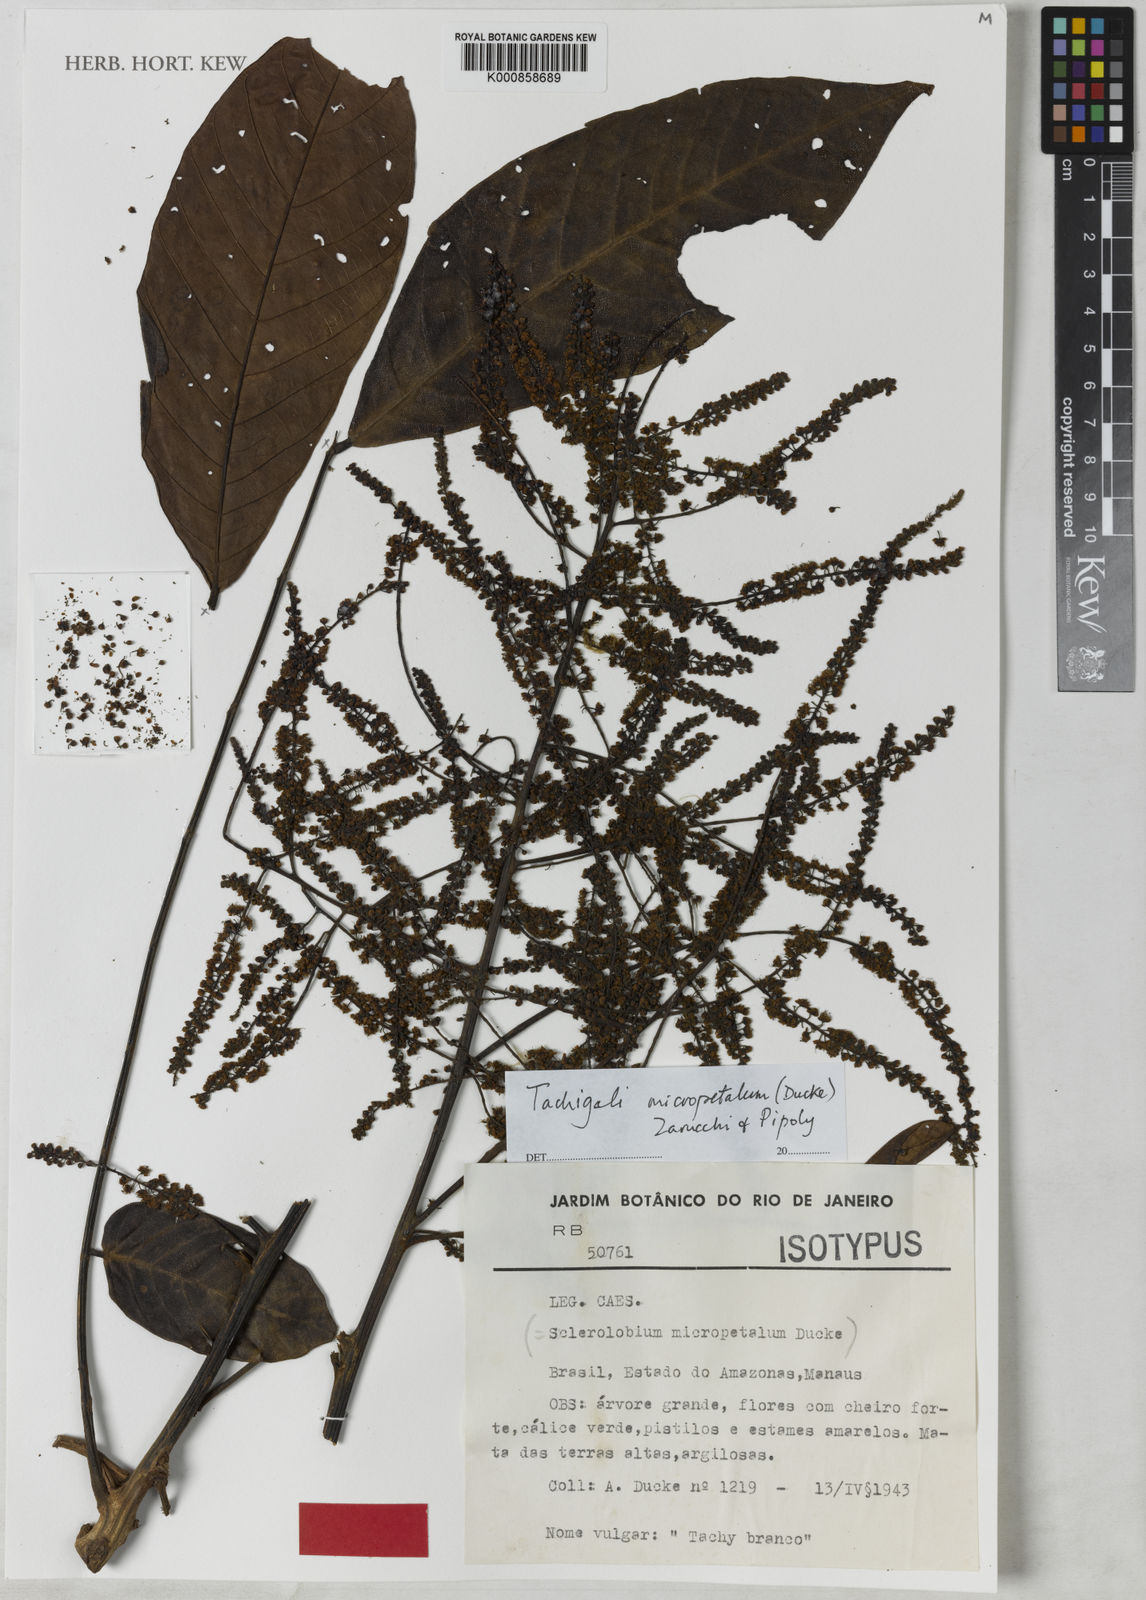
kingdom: Plantae
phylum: Tracheophyta
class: Magnoliopsida
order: Fabales
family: Fabaceae
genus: Tachigali
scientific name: Tachigali micropetala
